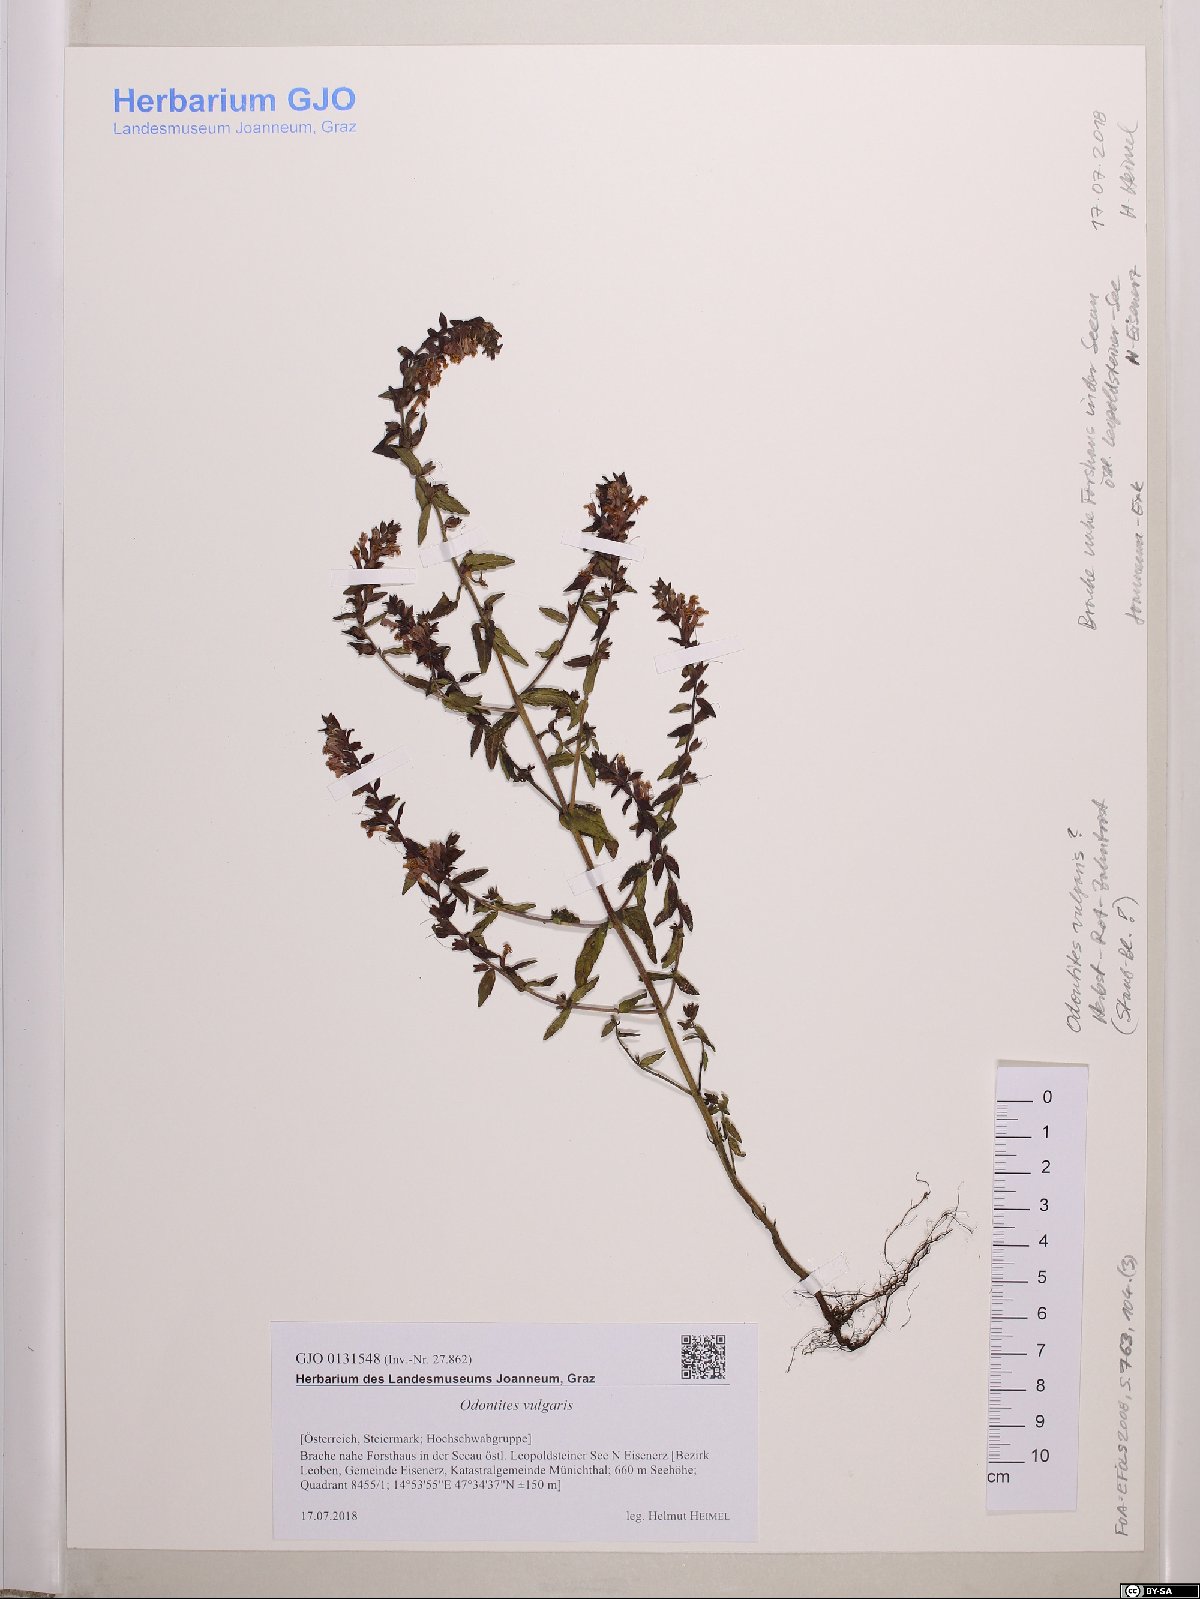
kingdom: Plantae
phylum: Tracheophyta
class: Magnoliopsida
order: Lamiales
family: Orobanchaceae
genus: Odontites
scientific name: Odontites vulgaris
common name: Broomrape
